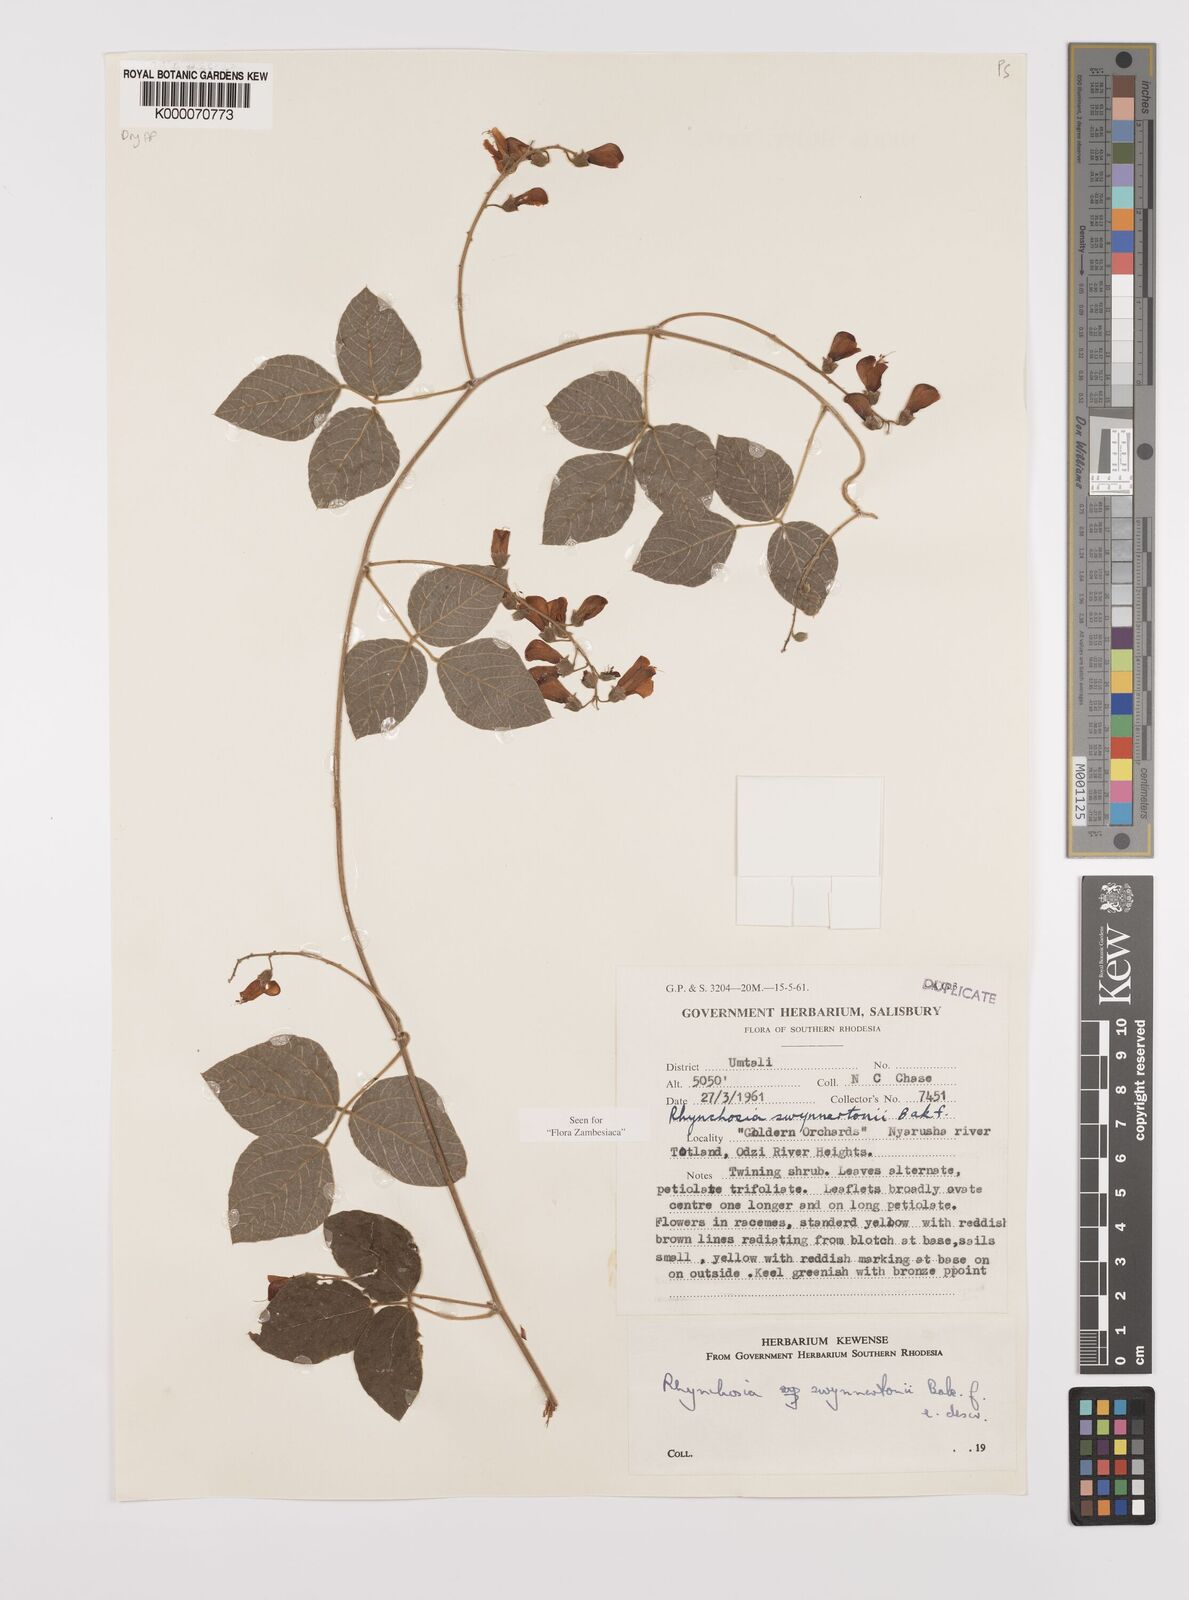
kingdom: Plantae
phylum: Tracheophyta
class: Magnoliopsida
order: Fabales
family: Fabaceae
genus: Rhynchosia
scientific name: Rhynchosia swynnertonii
